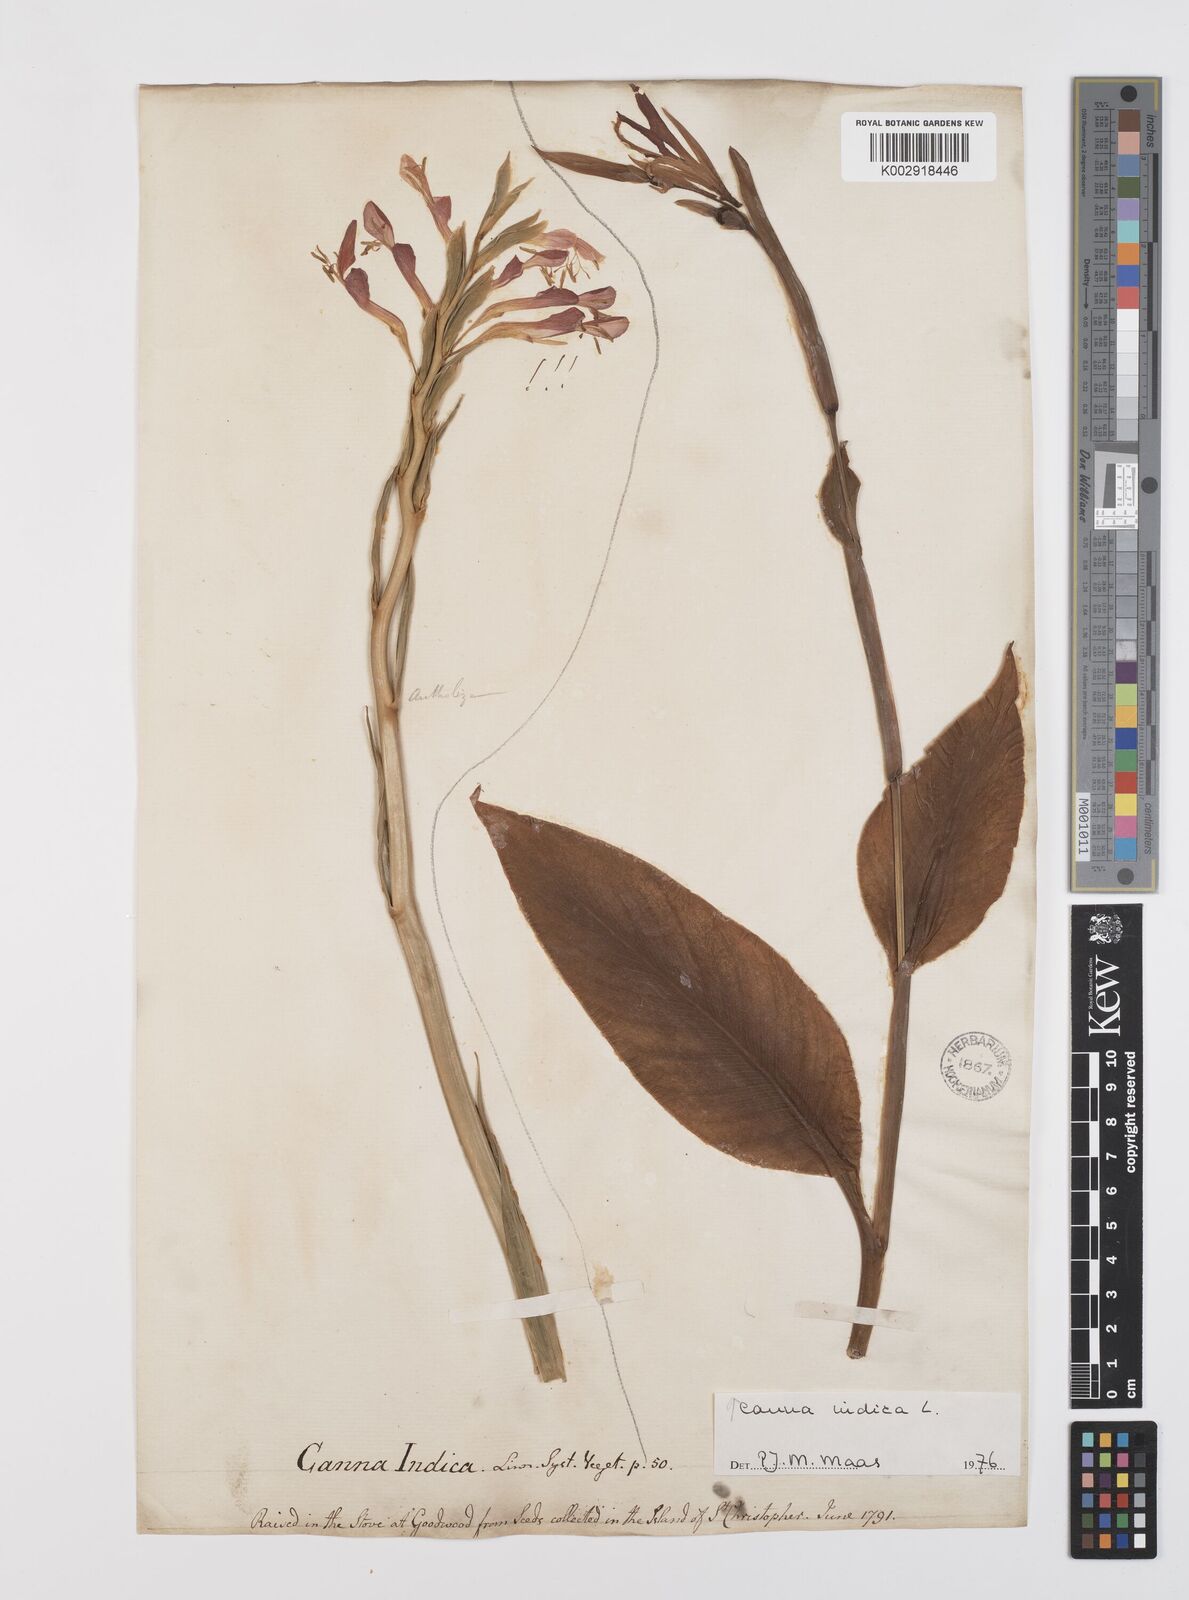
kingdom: Plantae
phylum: Tracheophyta
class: Liliopsida
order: Zingiberales
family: Cannaceae
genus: Canna
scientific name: Canna indica
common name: Indian shot
